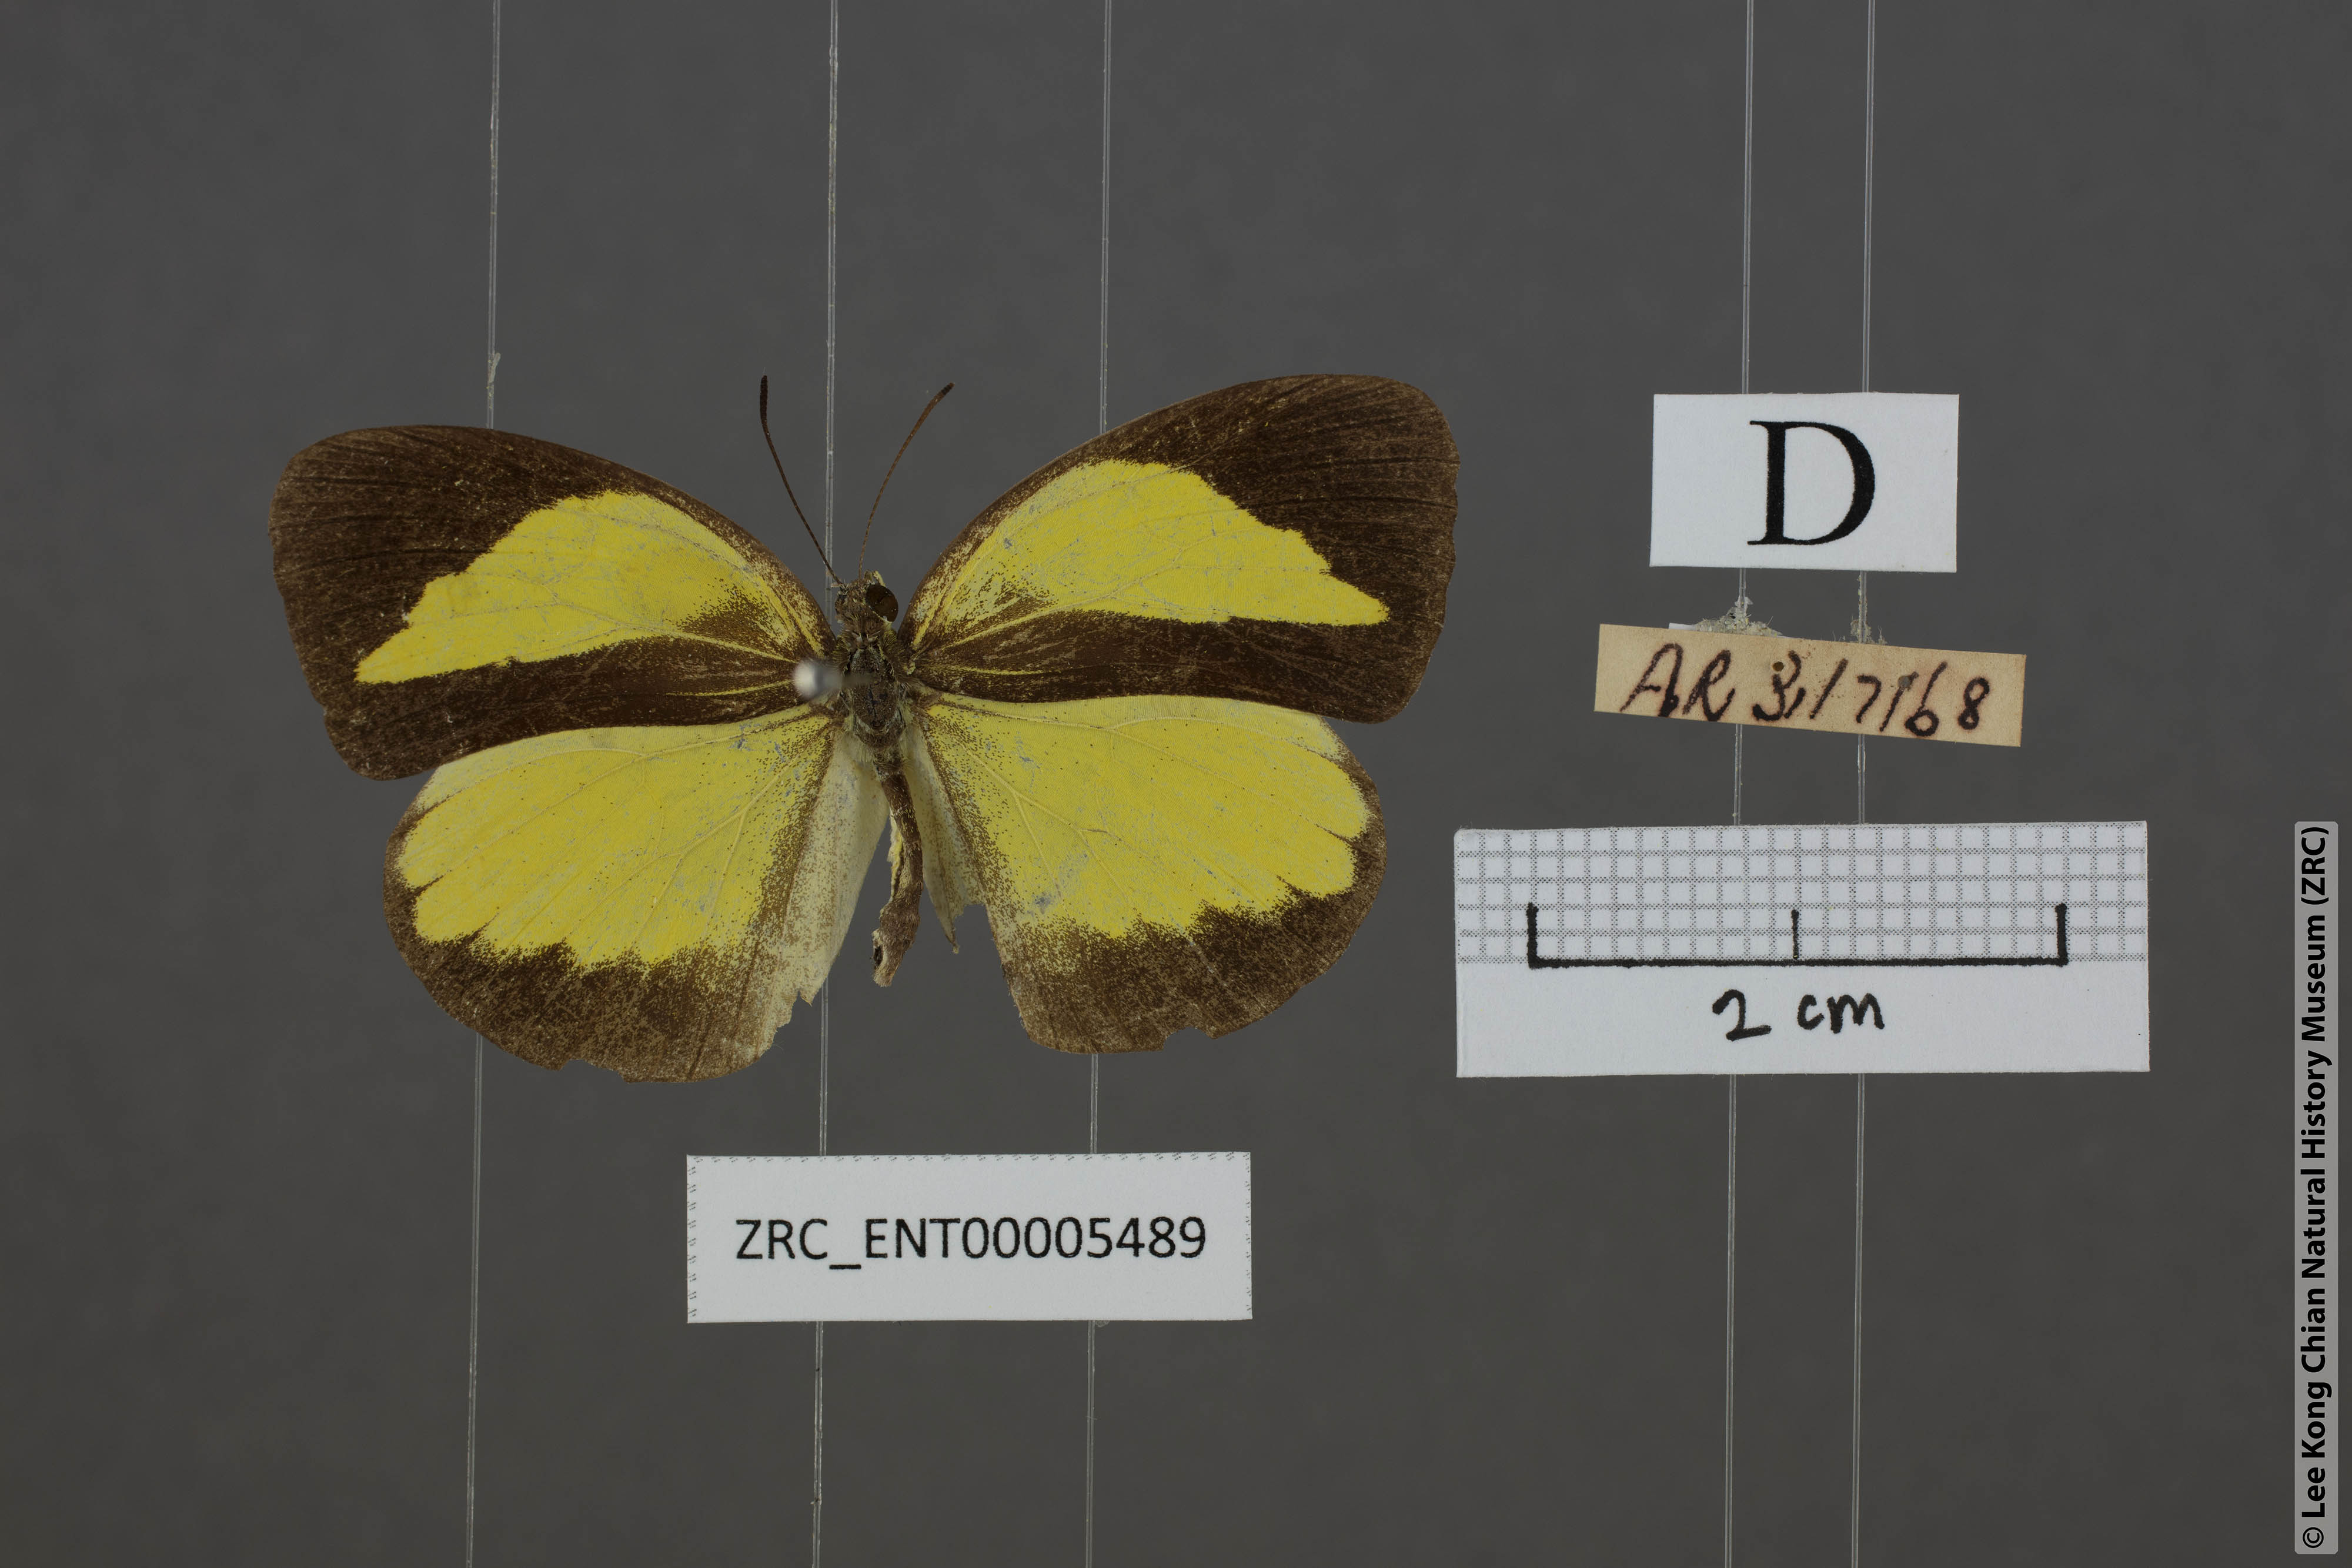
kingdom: Animalia
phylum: Arthropoda
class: Insecta
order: Lepidoptera
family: Pieridae
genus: Eurema
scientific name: Eurema nicevillei
